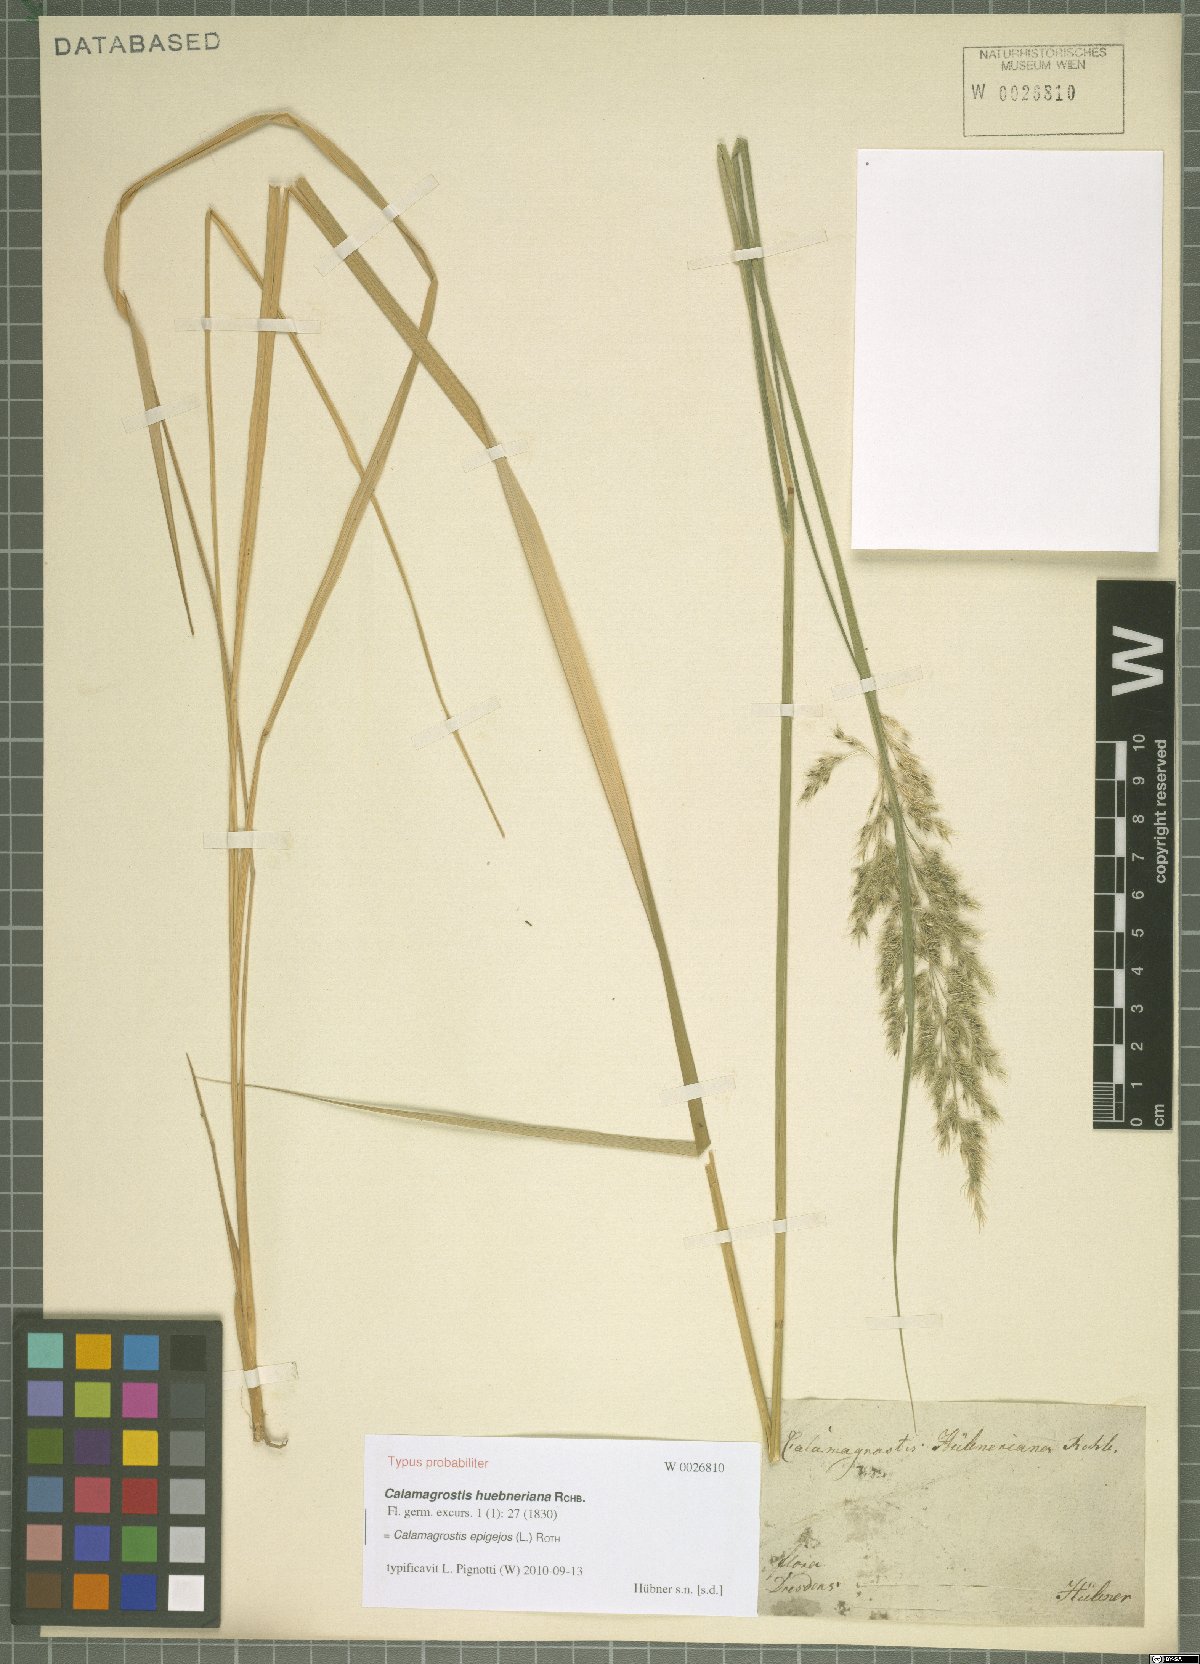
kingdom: Plantae
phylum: Tracheophyta
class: Liliopsida
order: Poales
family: Poaceae
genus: Calamagrostis
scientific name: Calamagrostis epigejos
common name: Wood small-reed
